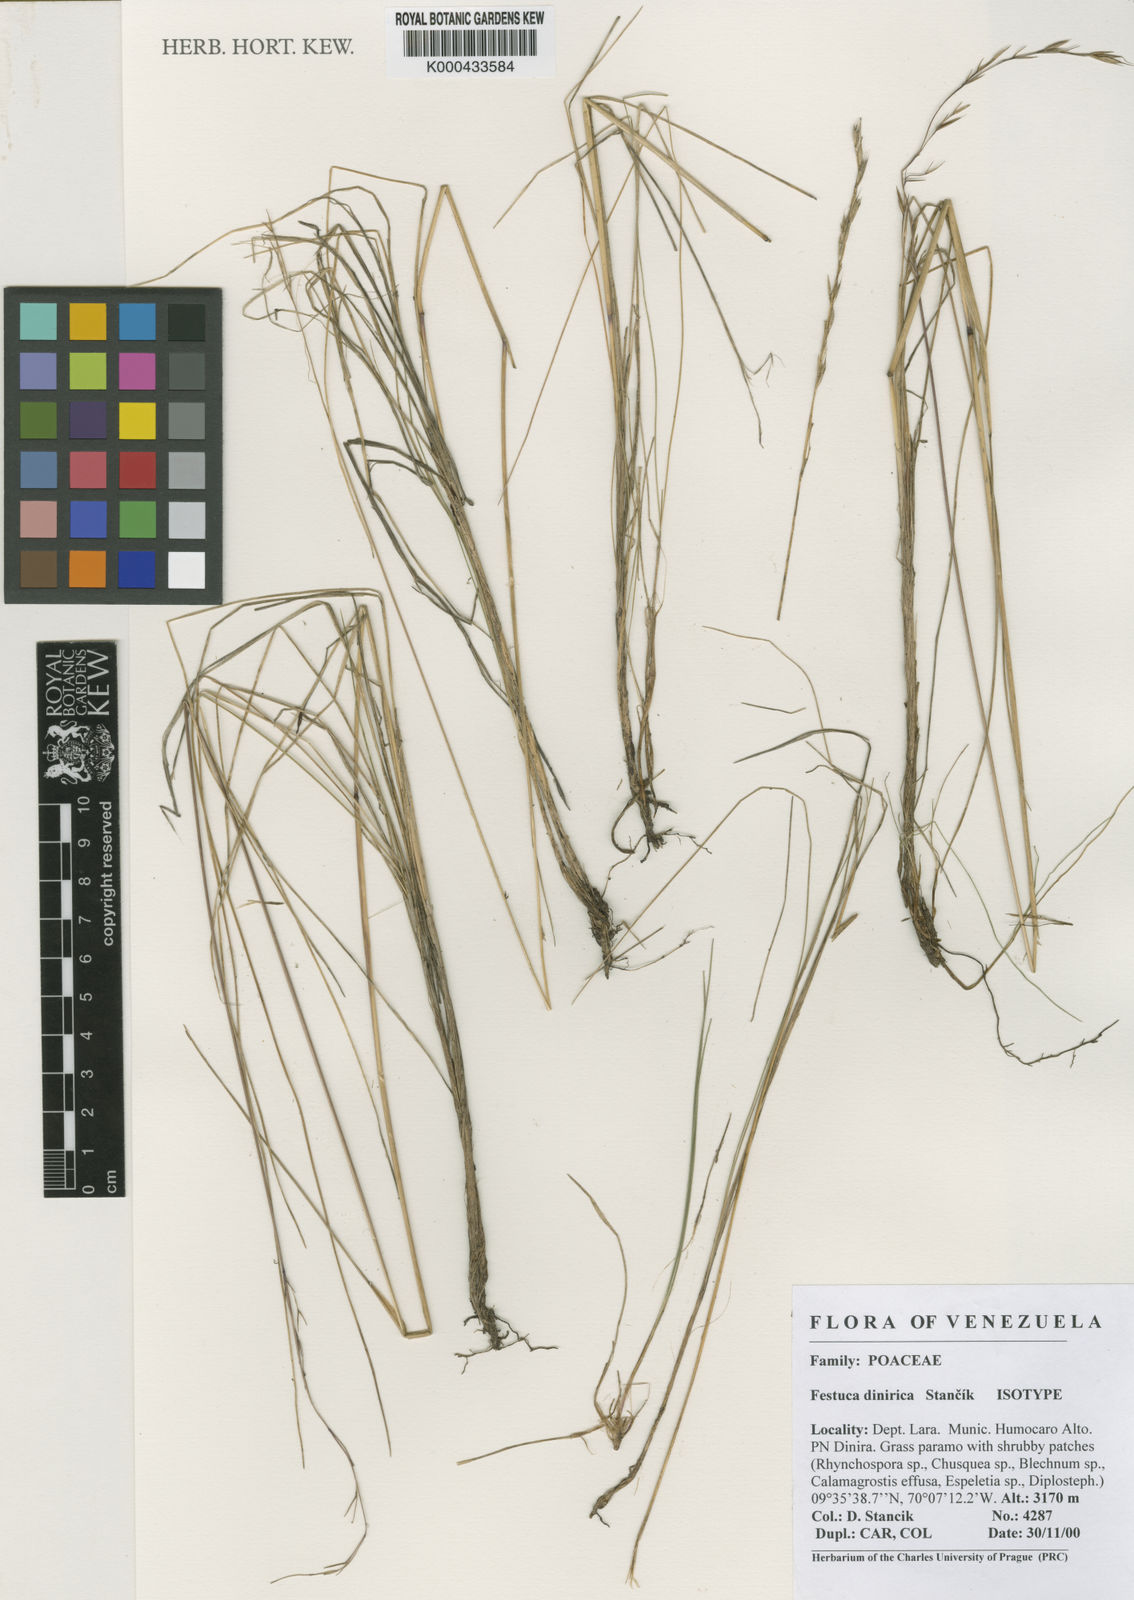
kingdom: Plantae
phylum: Tracheophyta
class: Liliopsida
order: Poales
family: Poaceae
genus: Festuca
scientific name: Festuca
